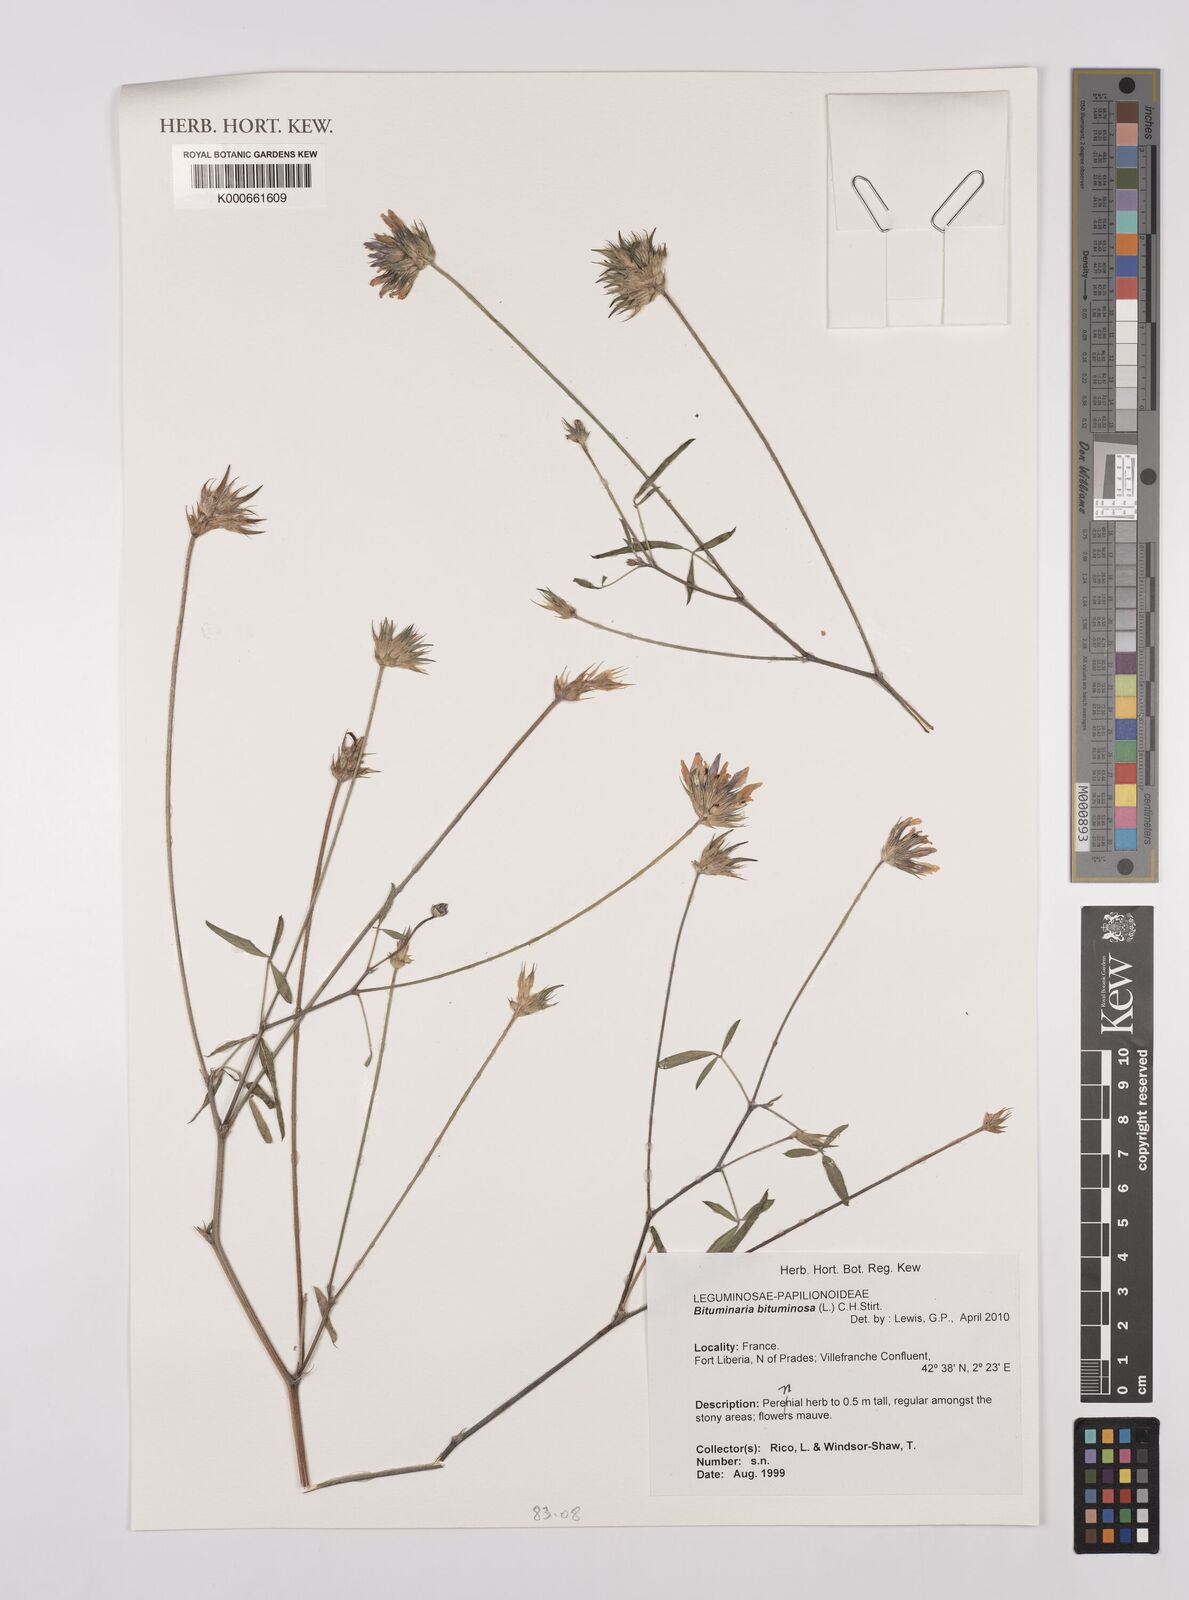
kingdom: Plantae
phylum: Tracheophyta
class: Magnoliopsida
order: Fabales
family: Fabaceae
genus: Bituminaria
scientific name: Bituminaria bituminosa
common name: Arabian pea
